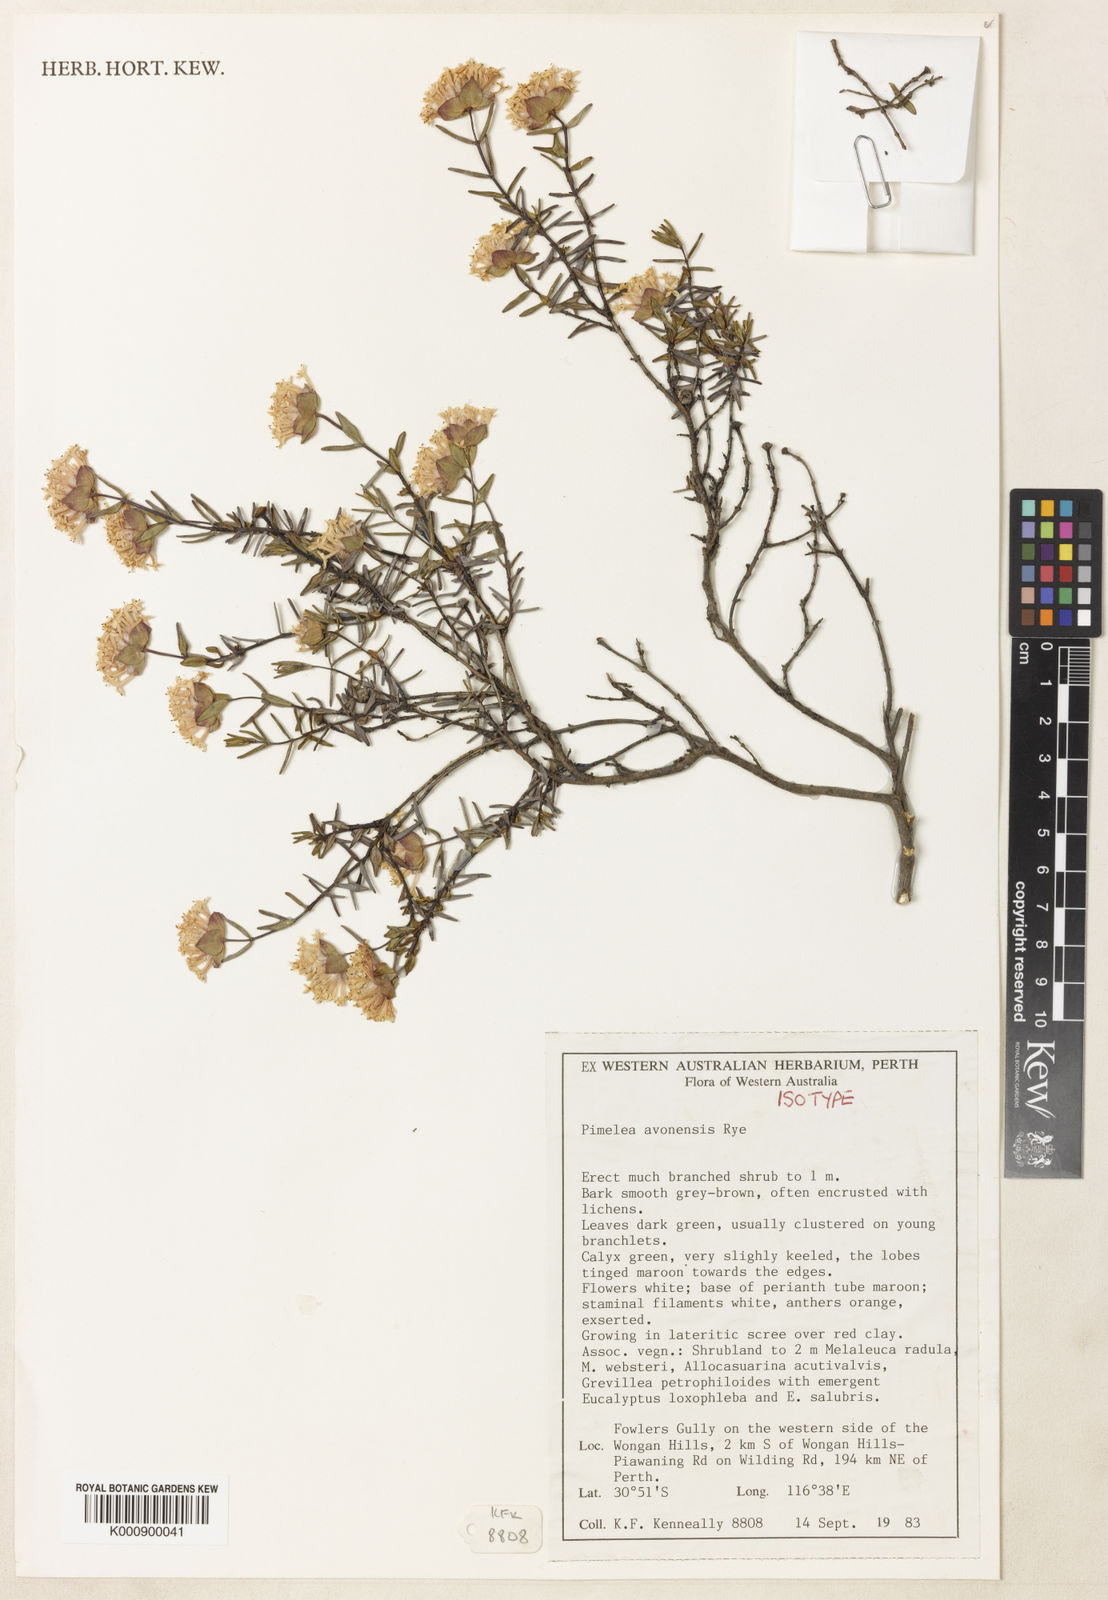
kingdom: Plantae
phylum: Tracheophyta
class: Magnoliopsida
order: Malvales
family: Thymelaeaceae
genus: Pimelea
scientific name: Pimelea avonensis
